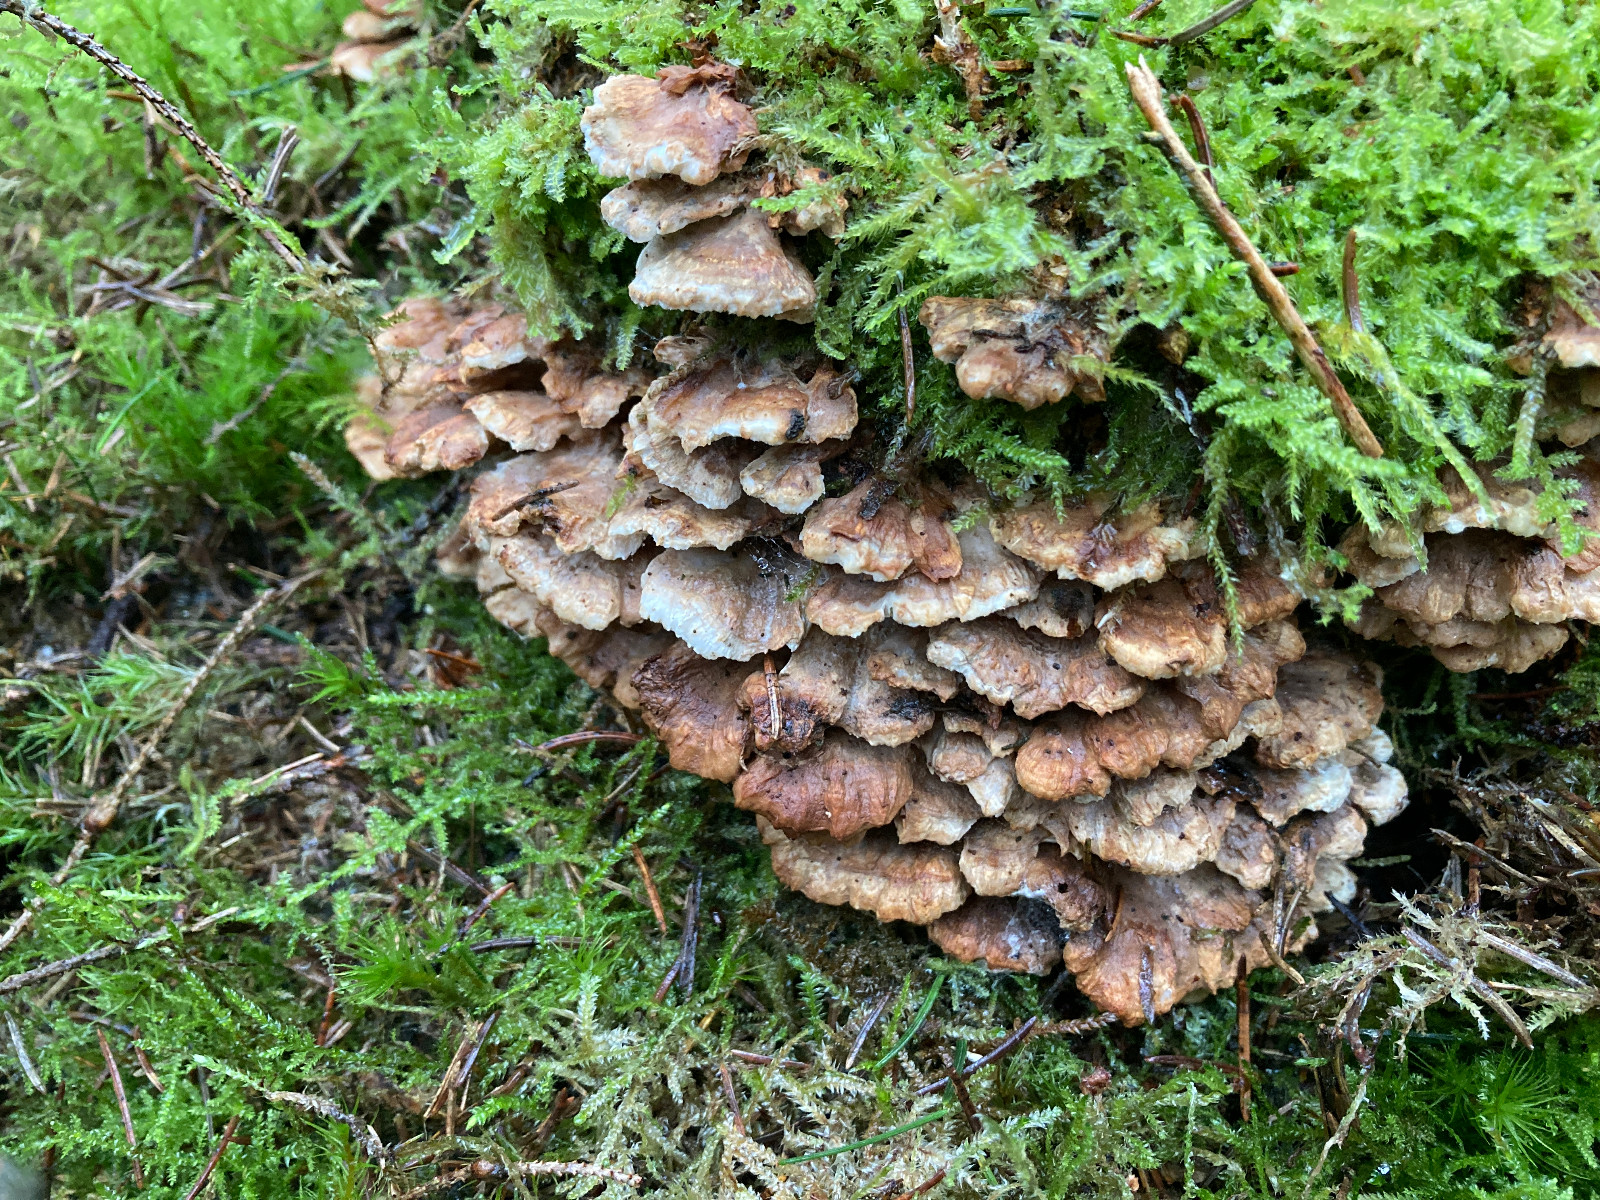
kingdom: Fungi
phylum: Basidiomycota
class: Agaricomycetes
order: Polyporales
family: Dacryobolaceae
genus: Oligoporus
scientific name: Oligoporus wakefieldiae
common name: række-kødporesvamp
